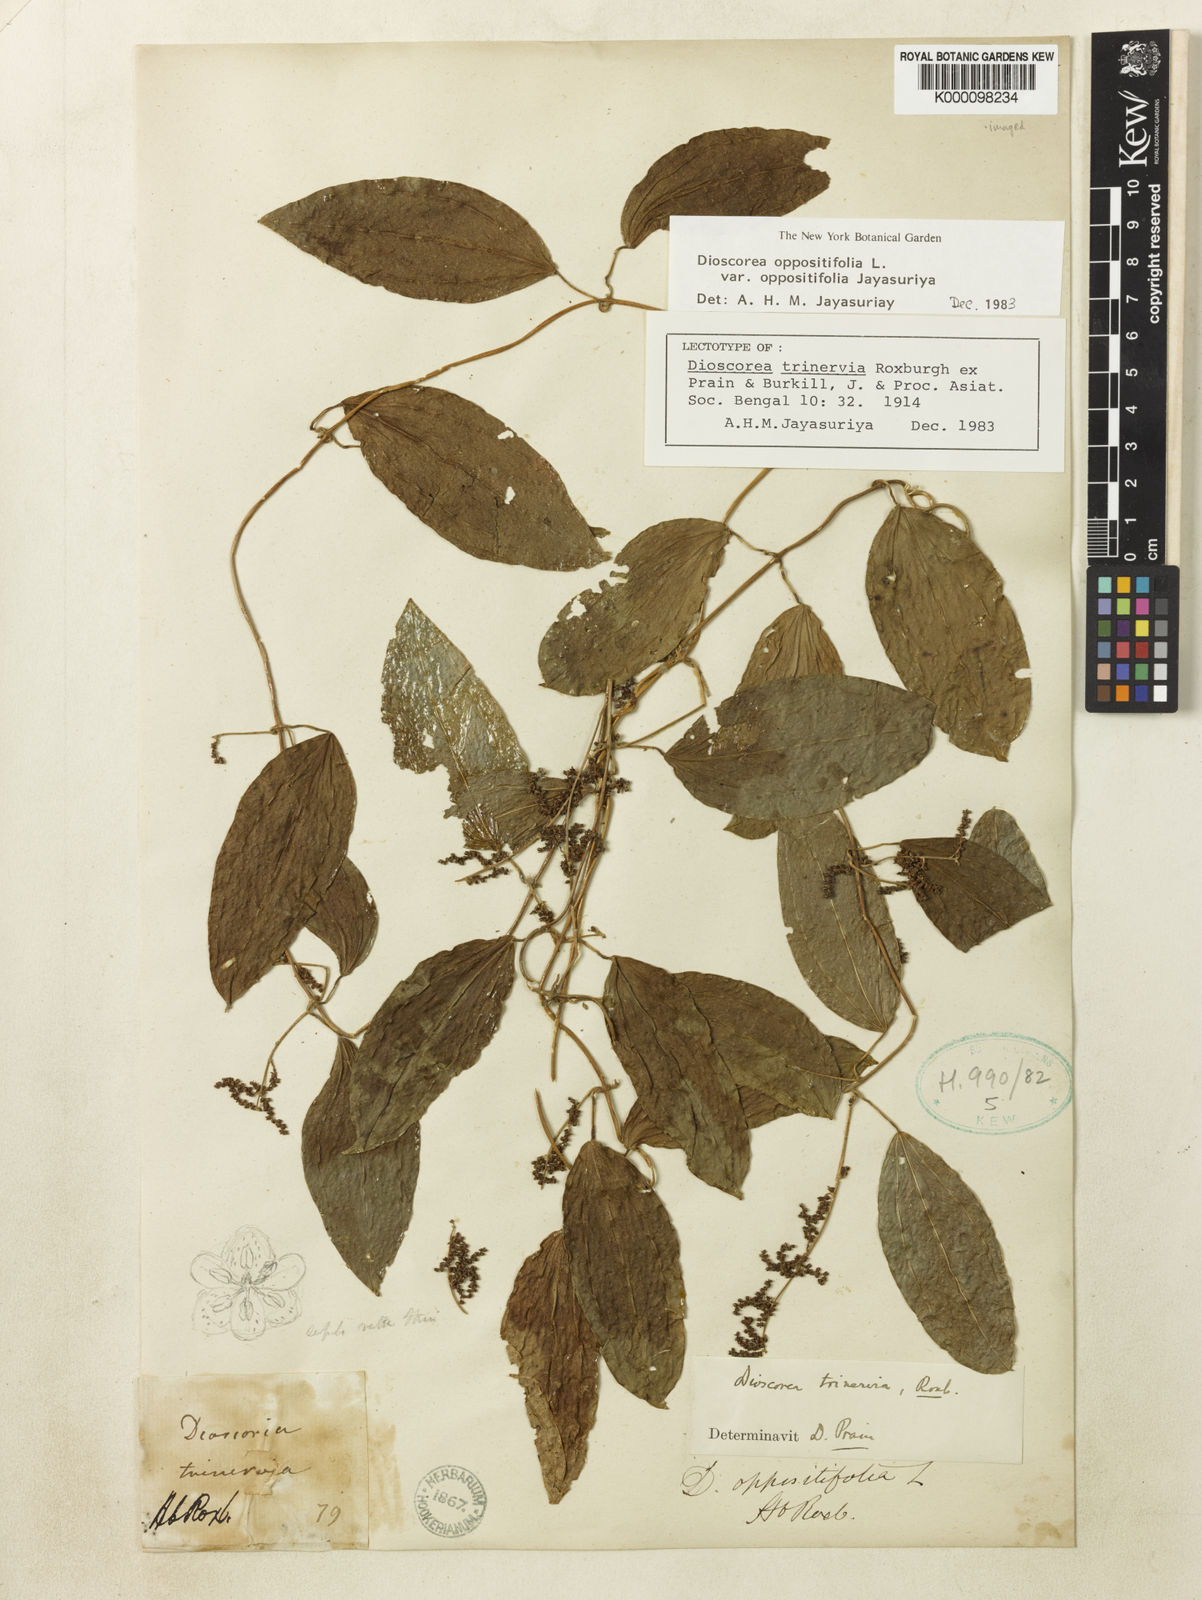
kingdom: Plantae
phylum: Tracheophyta
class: Liliopsida
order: Dioscoreales
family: Dioscoreaceae
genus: Dioscorea
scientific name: Dioscorea trinervia
